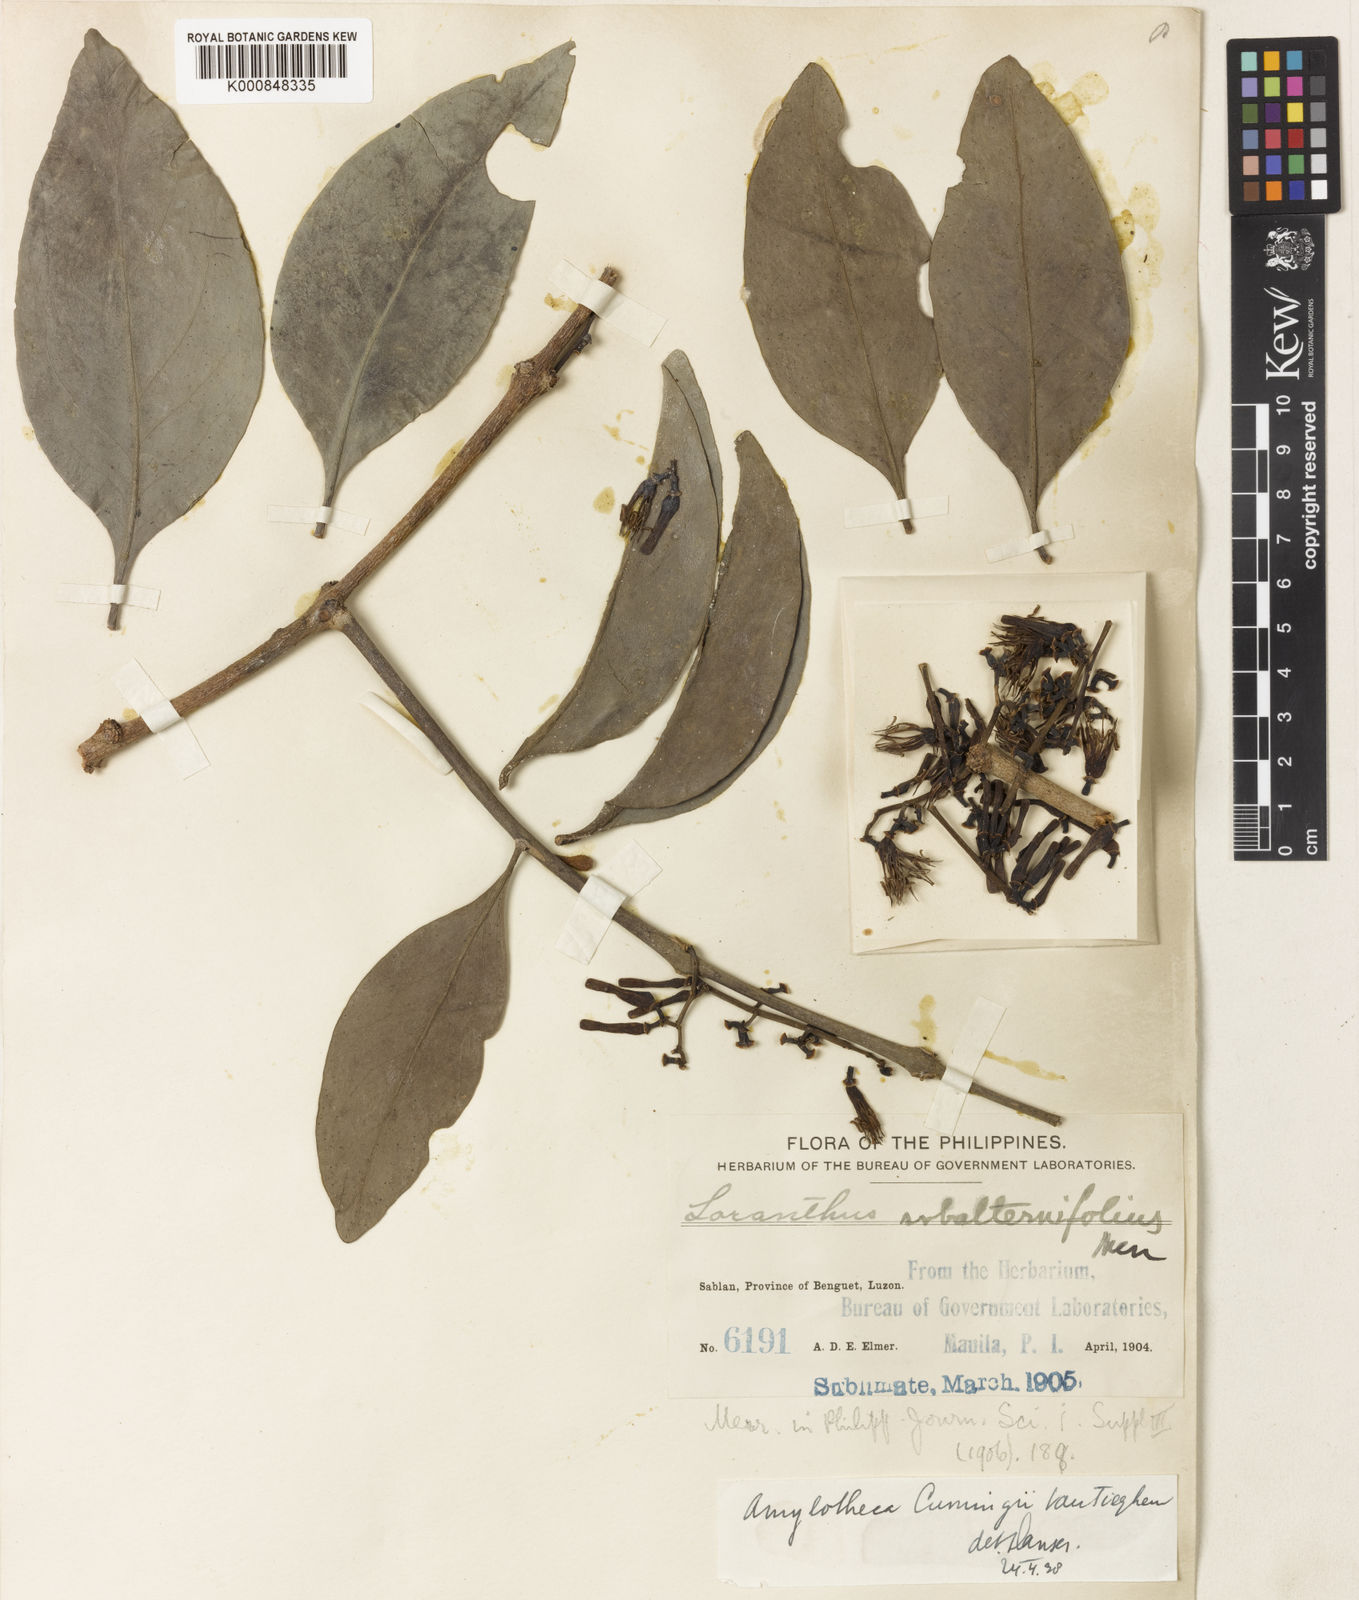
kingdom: Plantae
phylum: Tracheophyta
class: Magnoliopsida
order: Santalales
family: Loranthaceae
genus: Amylotheca
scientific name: Amylotheca
